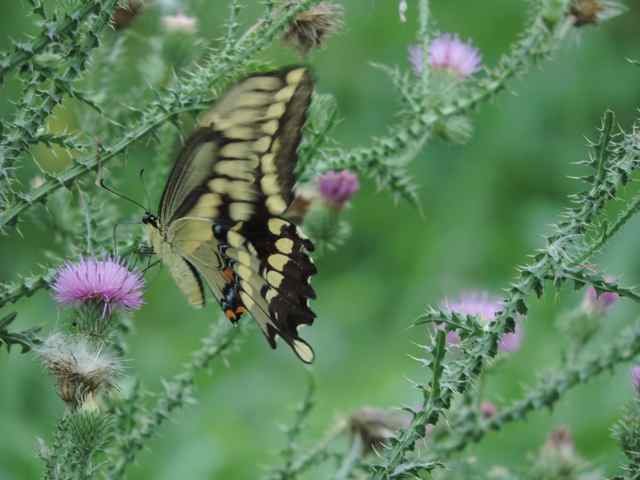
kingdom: Animalia
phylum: Arthropoda
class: Insecta
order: Lepidoptera
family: Papilionidae
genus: Papilio
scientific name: Papilio cresphontes
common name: Eastern Giant Swallowtail
